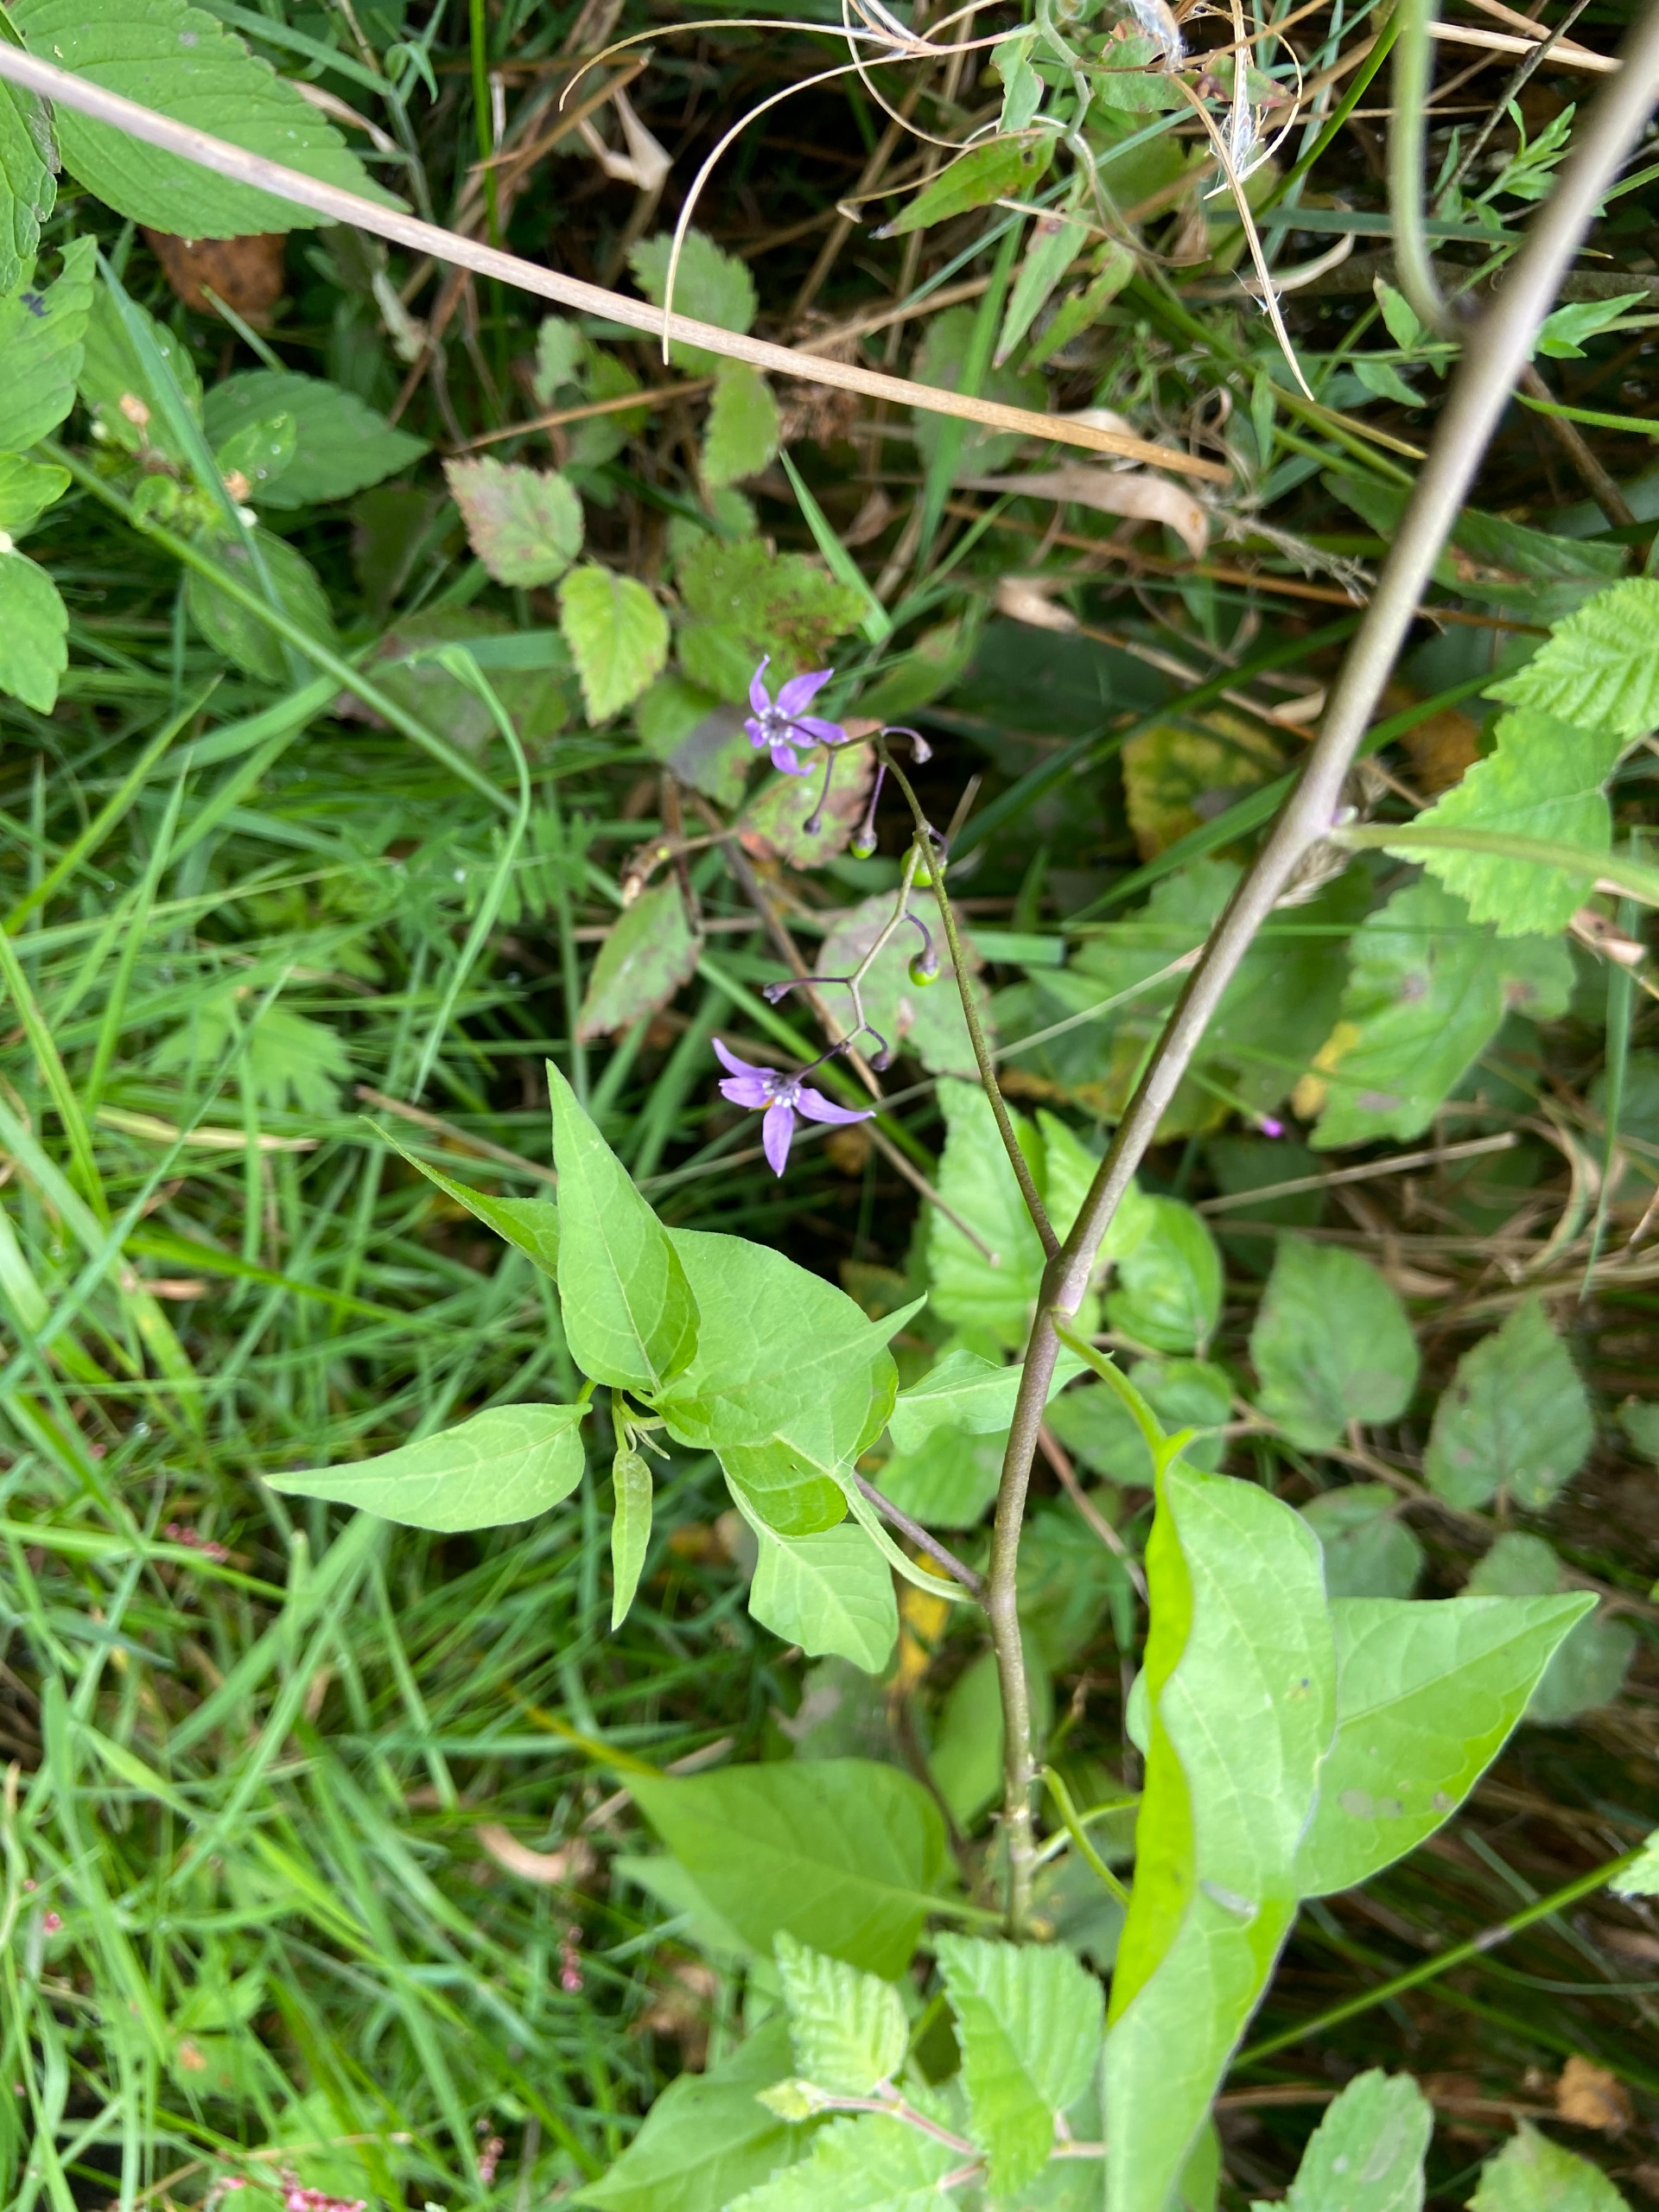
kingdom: Plantae
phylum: Tracheophyta
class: Magnoliopsida
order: Solanales
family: Solanaceae
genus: Solanum
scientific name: Solanum dulcamara
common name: Bittersød natskygge
